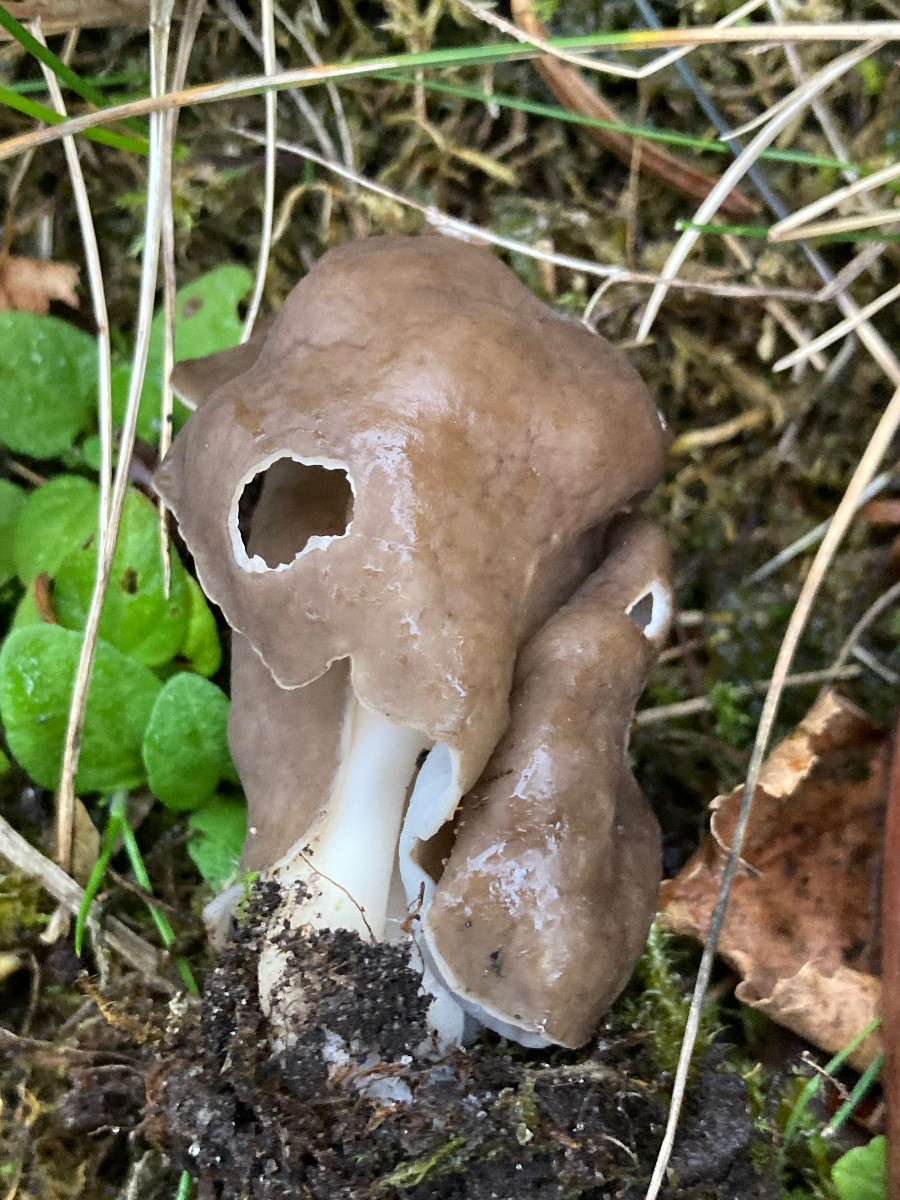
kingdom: Fungi
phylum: Ascomycota
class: Pezizomycetes
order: Pezizales
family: Helvellaceae
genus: Helvella
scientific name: Helvella elastica
